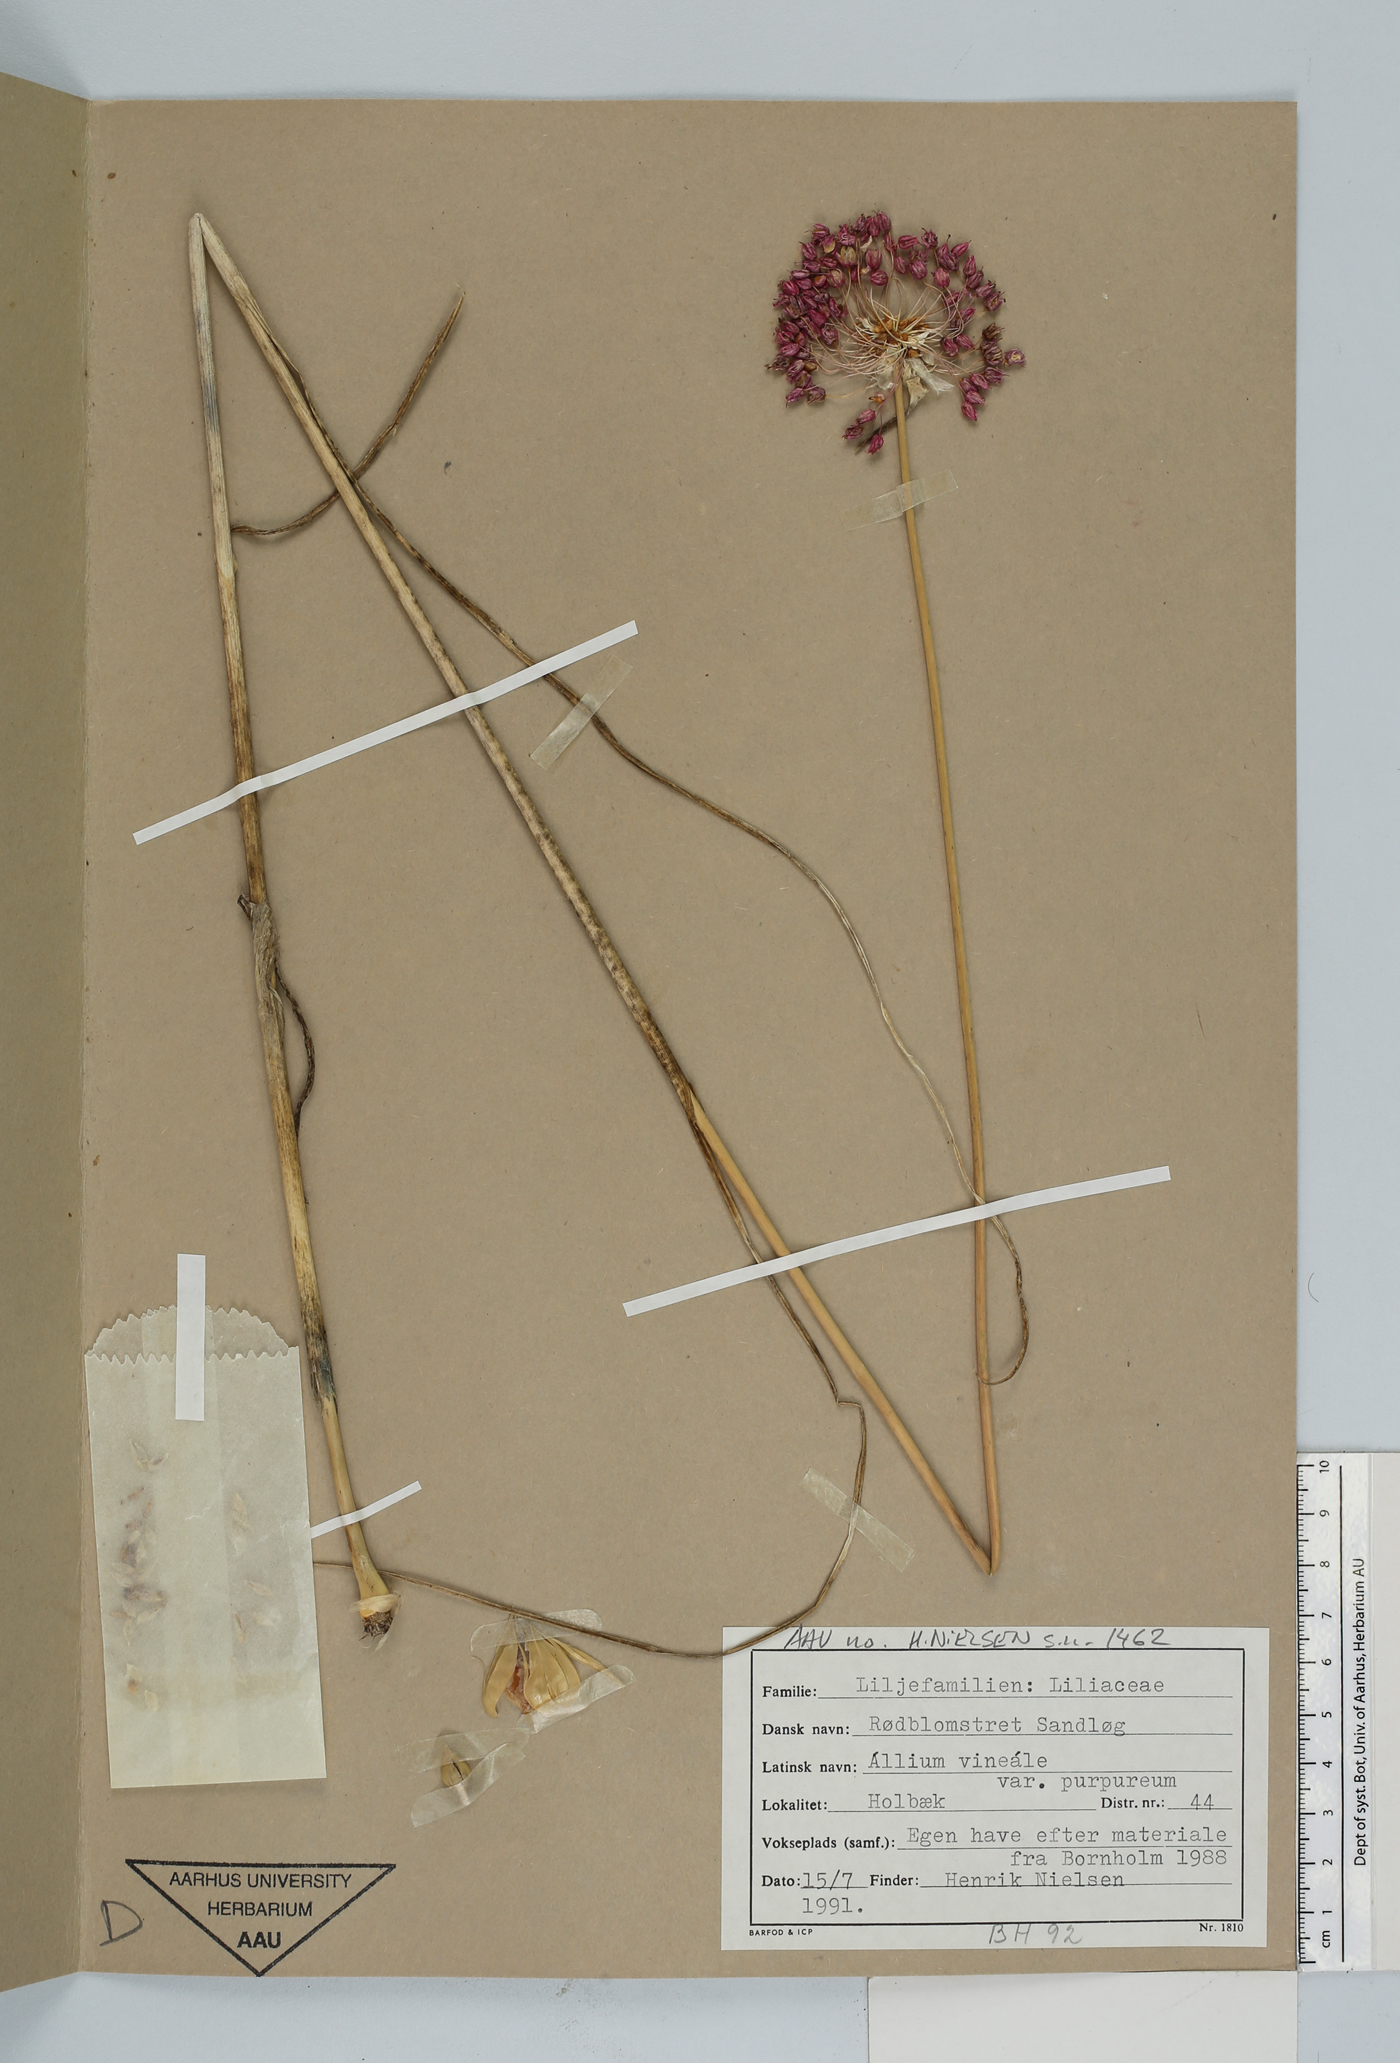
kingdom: Plantae
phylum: Tracheophyta
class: Liliopsida
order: Asparagales
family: Amaryllidaceae
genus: Allium
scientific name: Allium vineale
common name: Crow garlic
